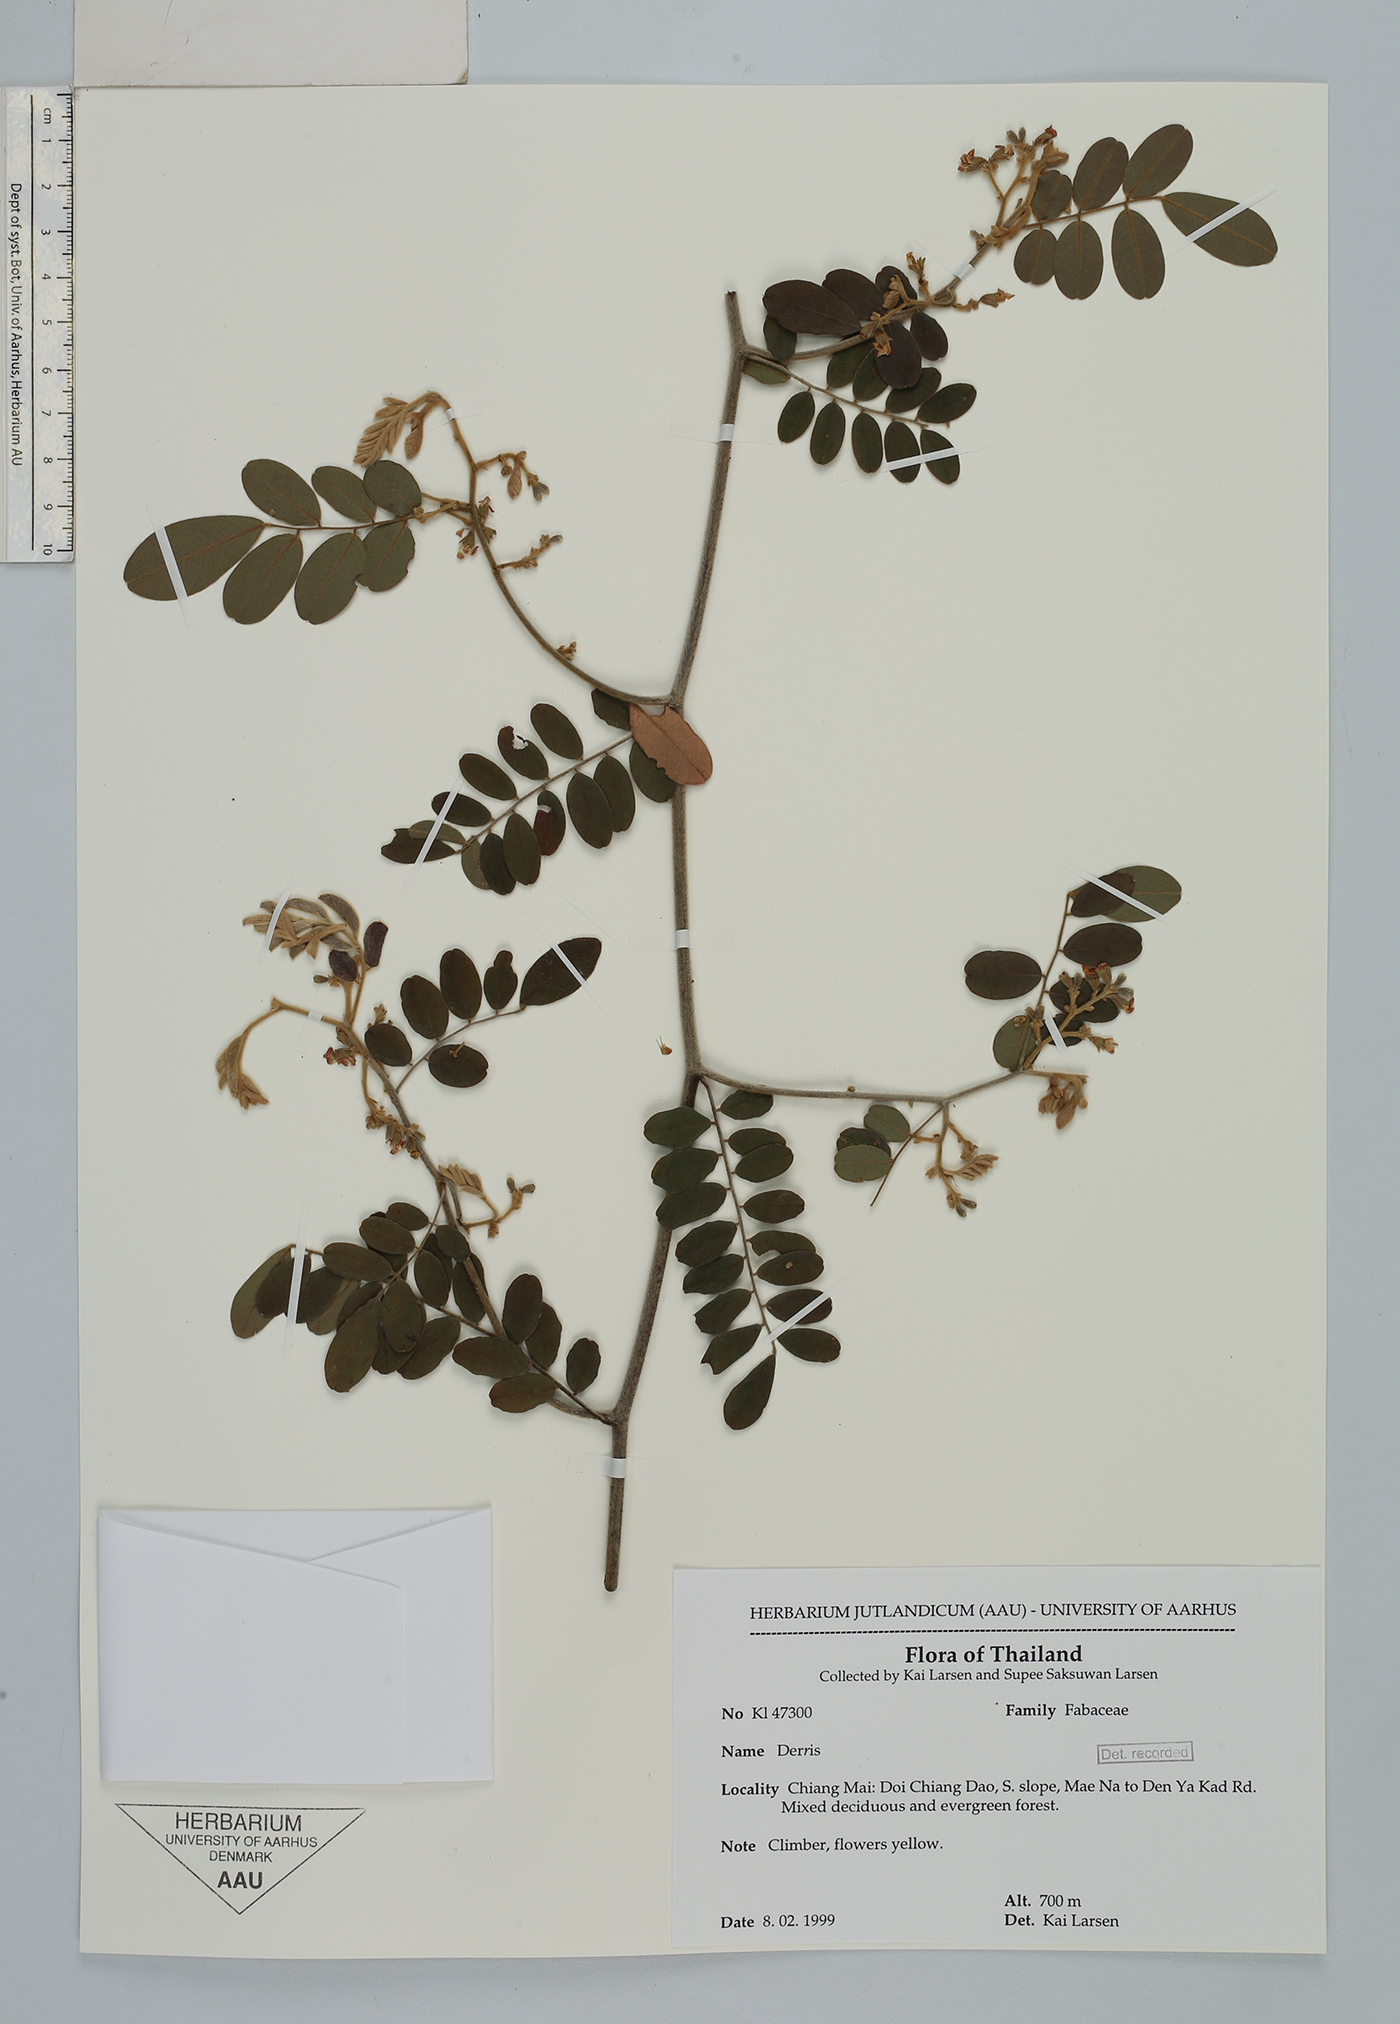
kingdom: Plantae
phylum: Tracheophyta
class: Magnoliopsida
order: Fabales
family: Fabaceae
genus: Derris
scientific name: Derris
